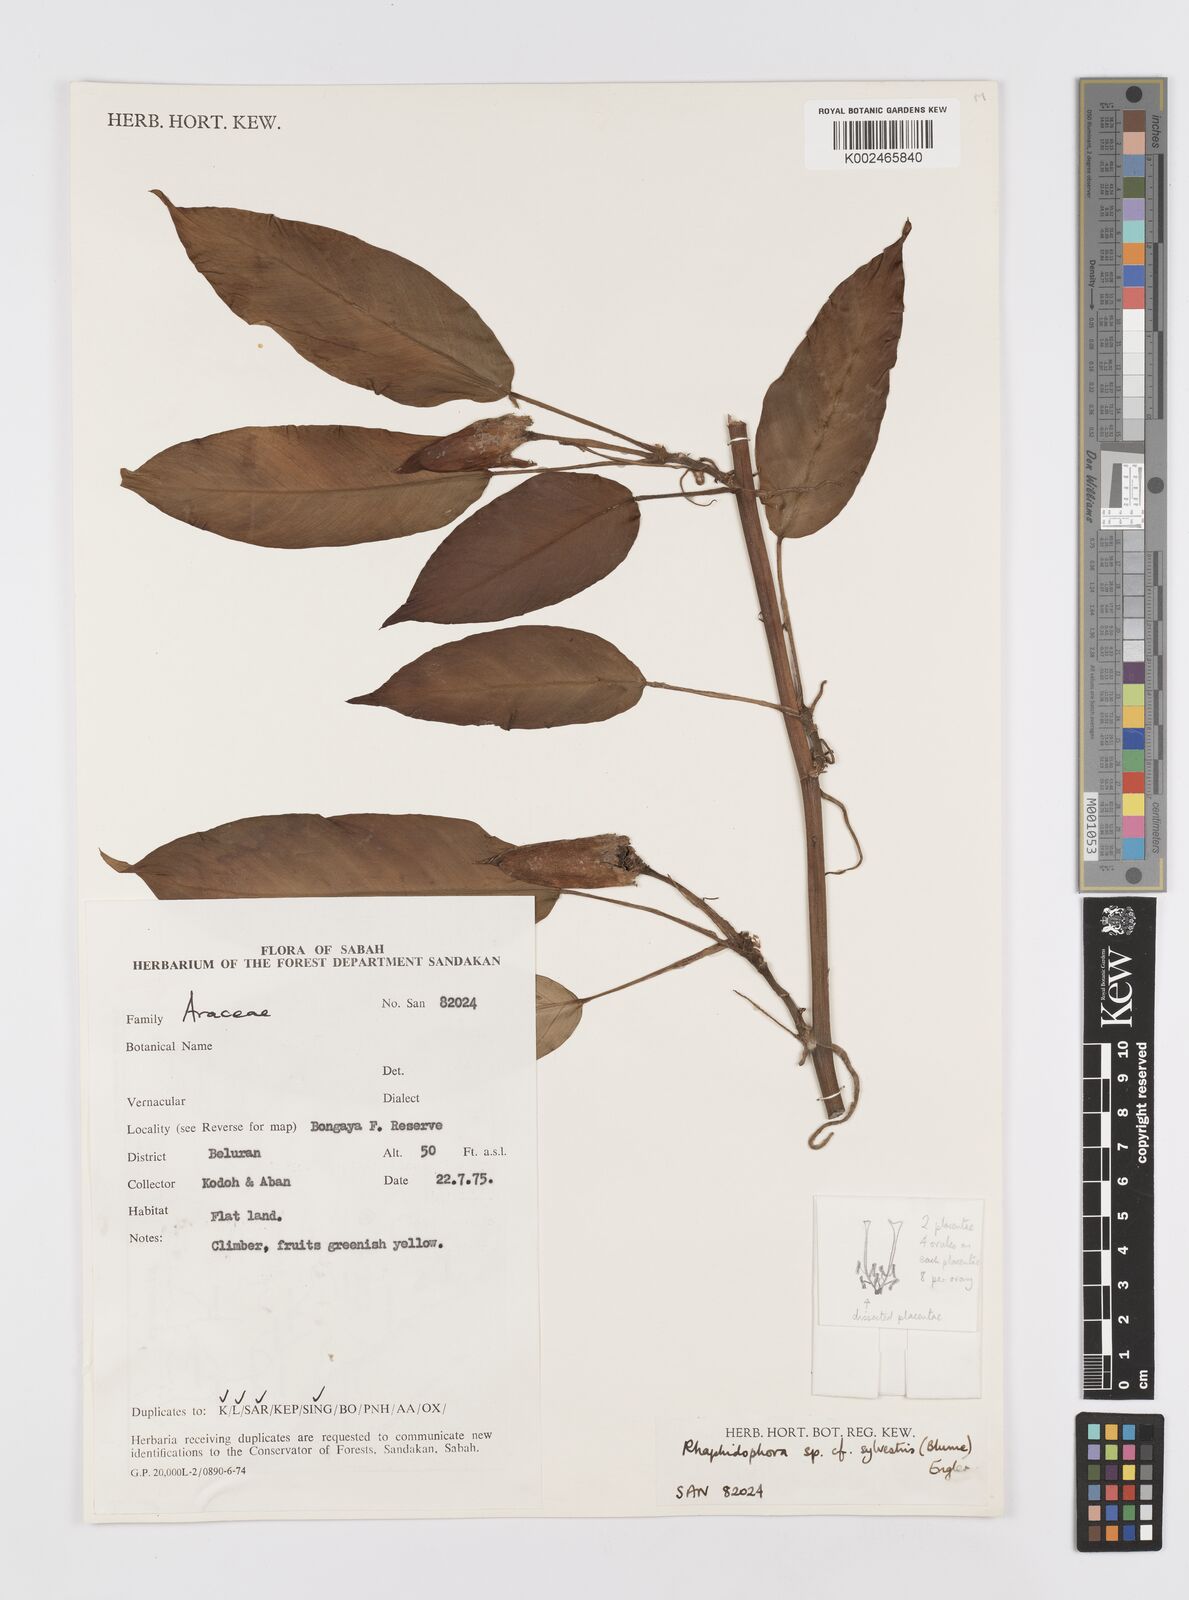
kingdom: Plantae
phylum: Tracheophyta
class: Liliopsida
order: Alismatales
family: Araceae
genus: Rhaphidophora
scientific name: Rhaphidophora lobbii
